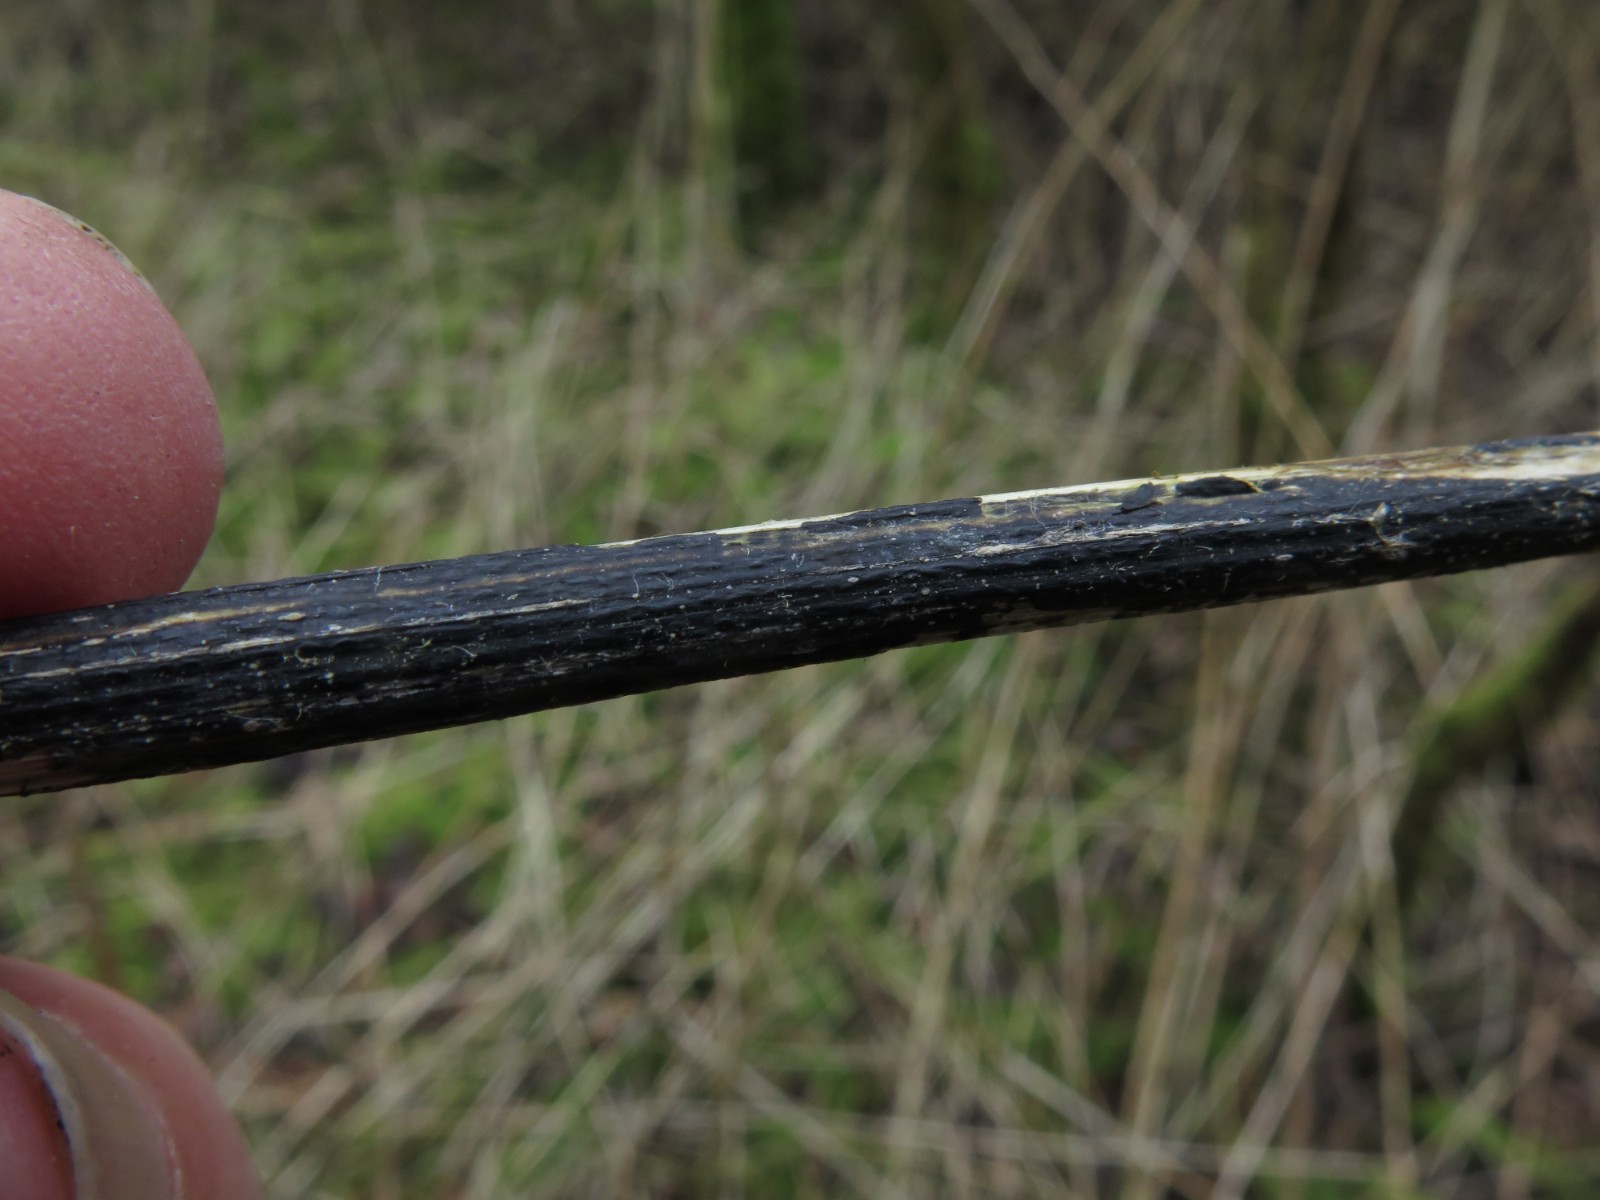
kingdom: Fungi
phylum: Ascomycota
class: Sordariomycetes
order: Diaporthales
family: Diaporthaceae
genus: Diaporthopsis
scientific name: Diaporthopsis urticae
